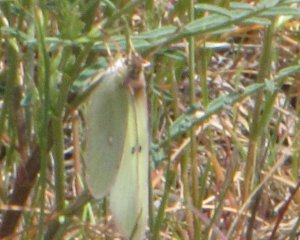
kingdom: Animalia
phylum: Arthropoda
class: Insecta
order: Lepidoptera
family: Pieridae
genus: Colias
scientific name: Colias alexandra
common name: Queen Alexandra's Sulphur
